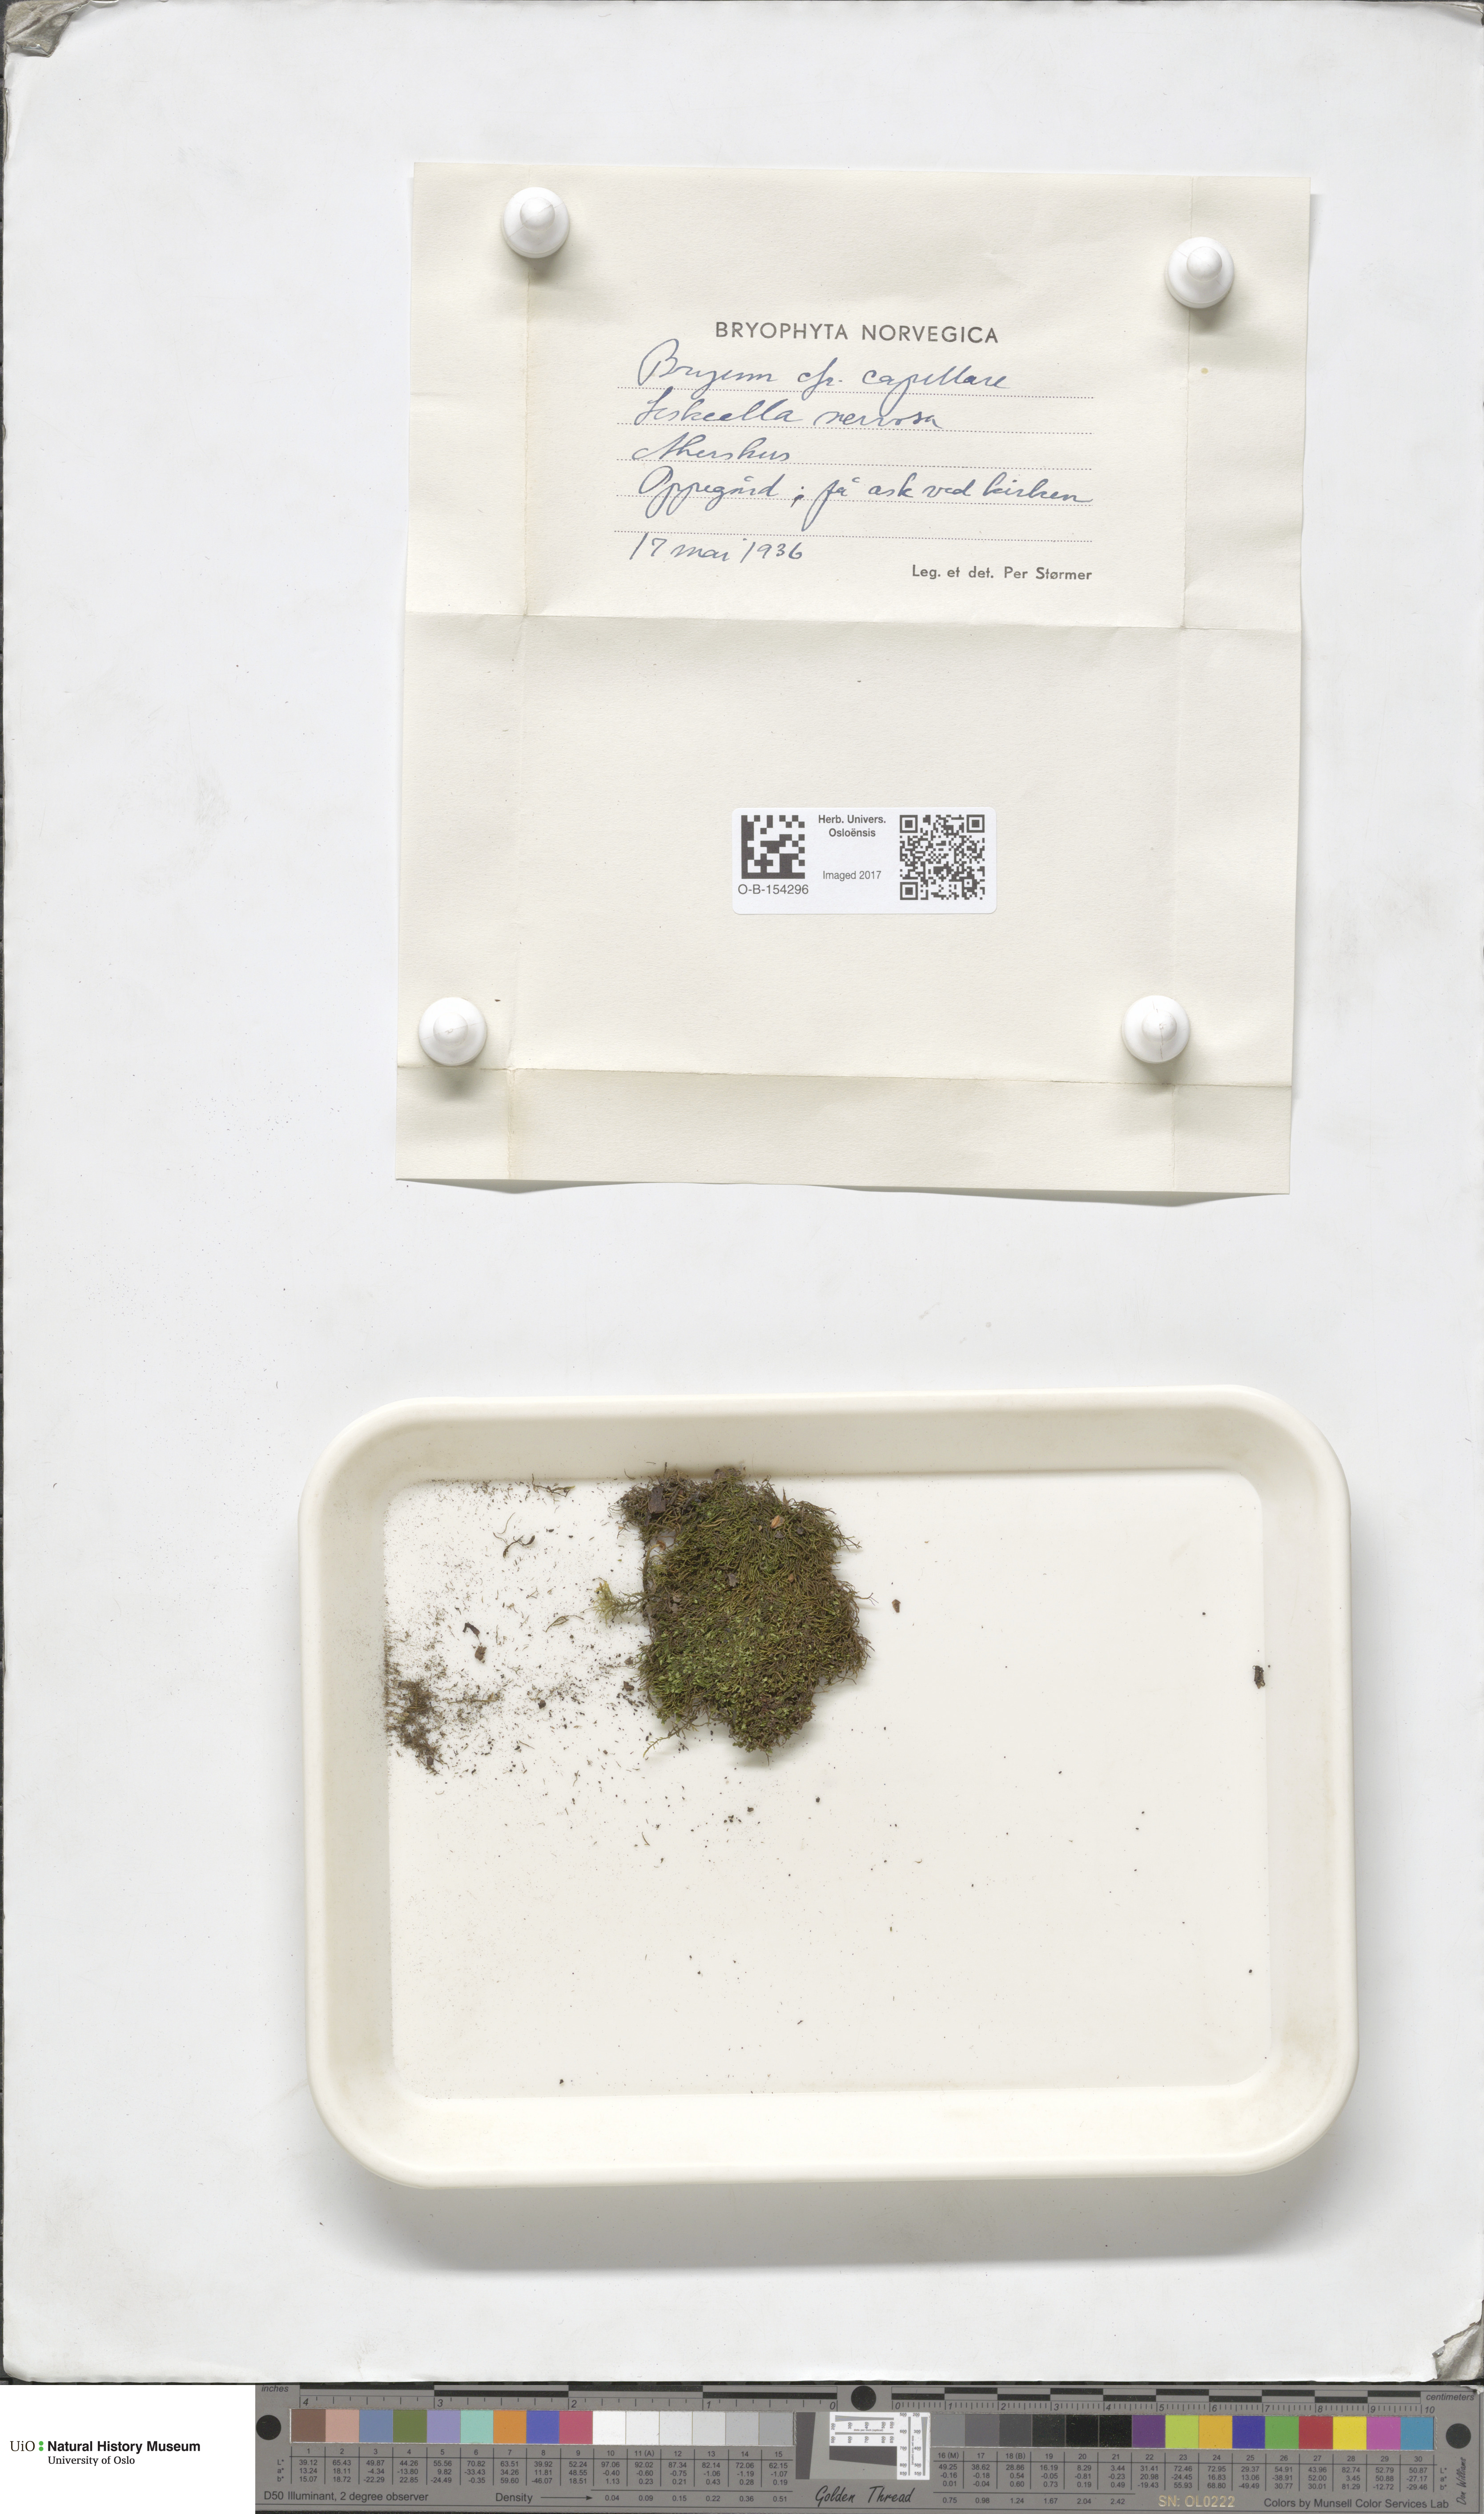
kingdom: Plantae
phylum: Bryophyta
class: Bryopsida
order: Bryales
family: Bryaceae
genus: Rosulabryum
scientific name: Rosulabryum capillare
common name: Capillary thread-moss
